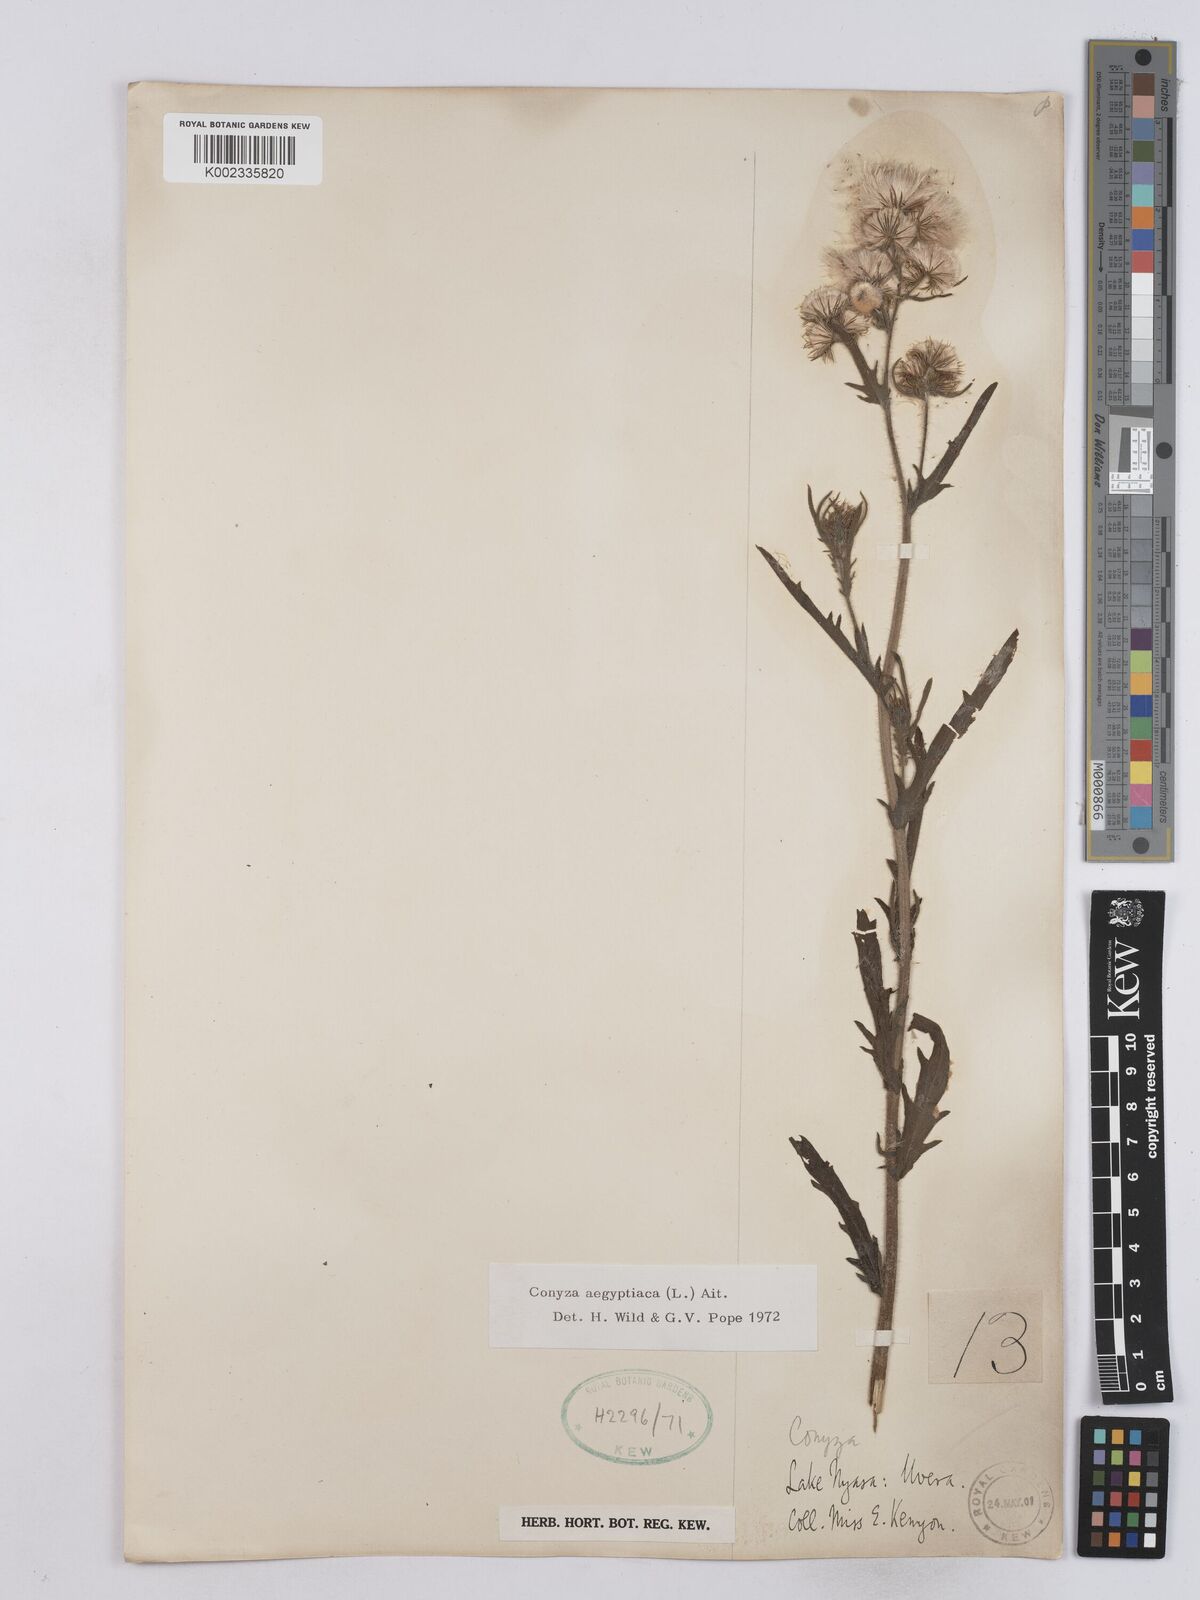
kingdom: Plantae
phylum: Tracheophyta
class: Magnoliopsida
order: Asterales
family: Asteraceae
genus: Nidorella
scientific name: Nidorella aegyptiaca
